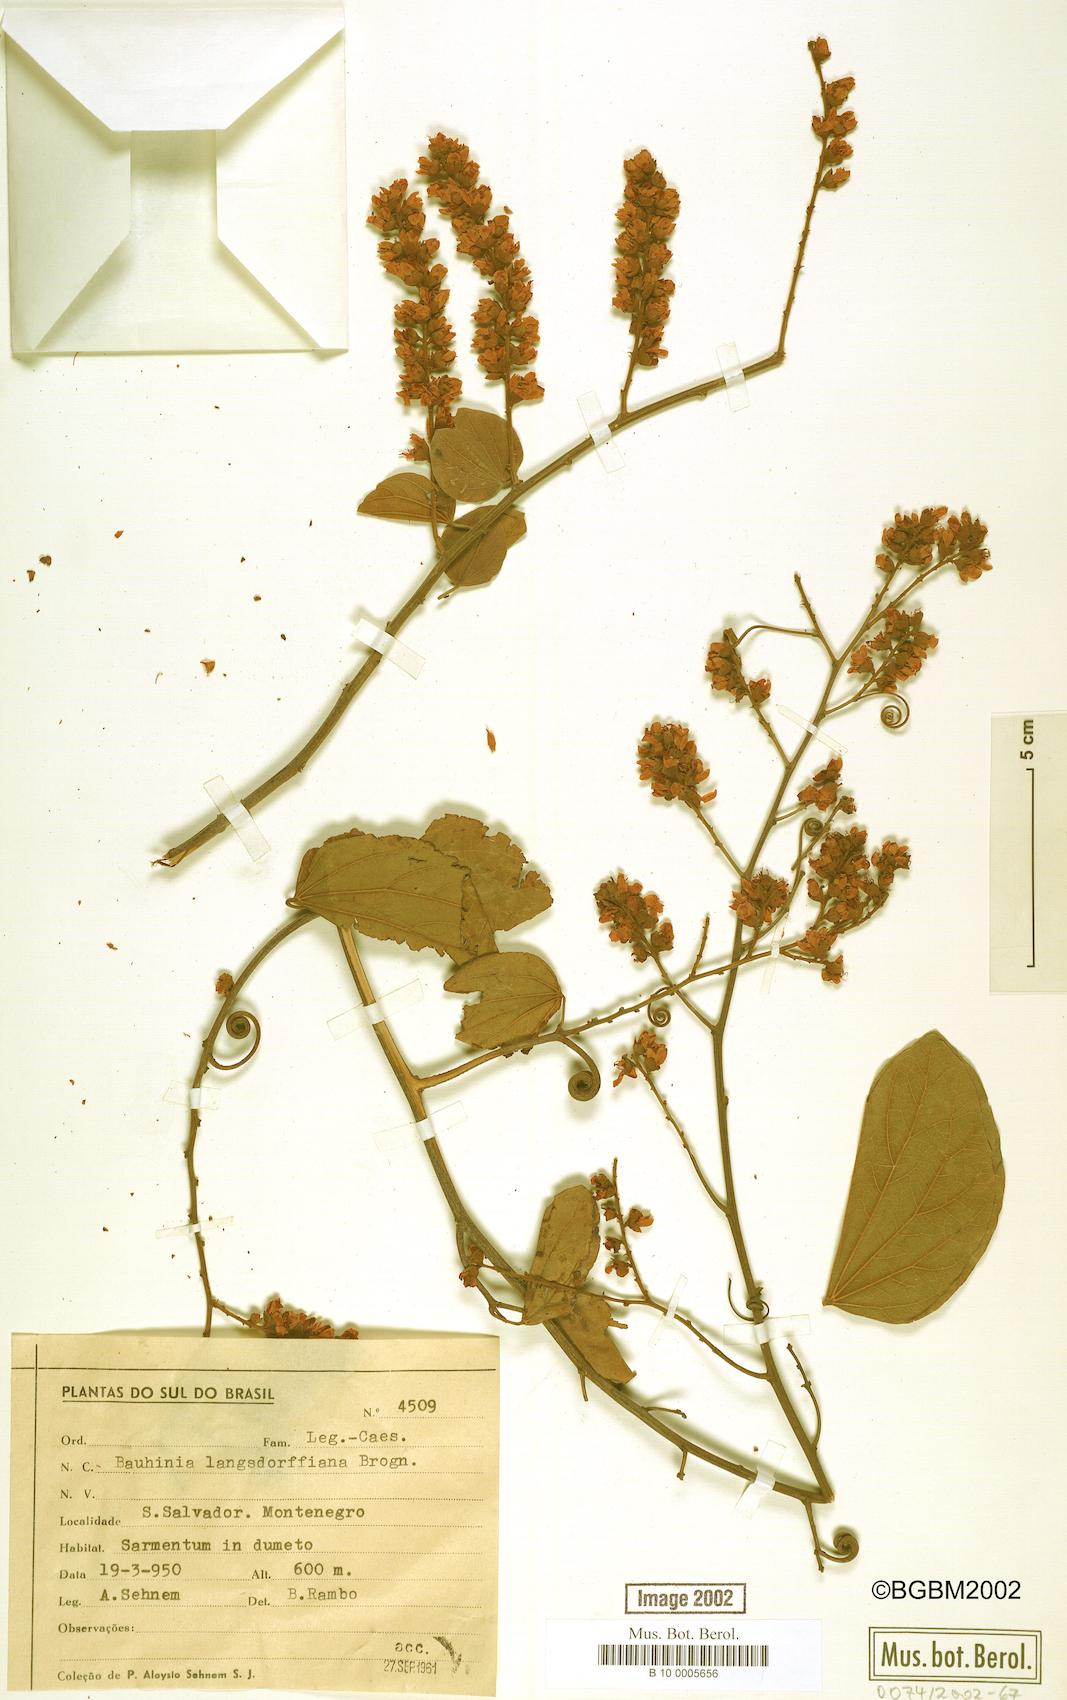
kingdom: Plantae
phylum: Tracheophyta
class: Magnoliopsida
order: Fabales
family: Fabaceae
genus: Schnella
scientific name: Schnella microstachya
